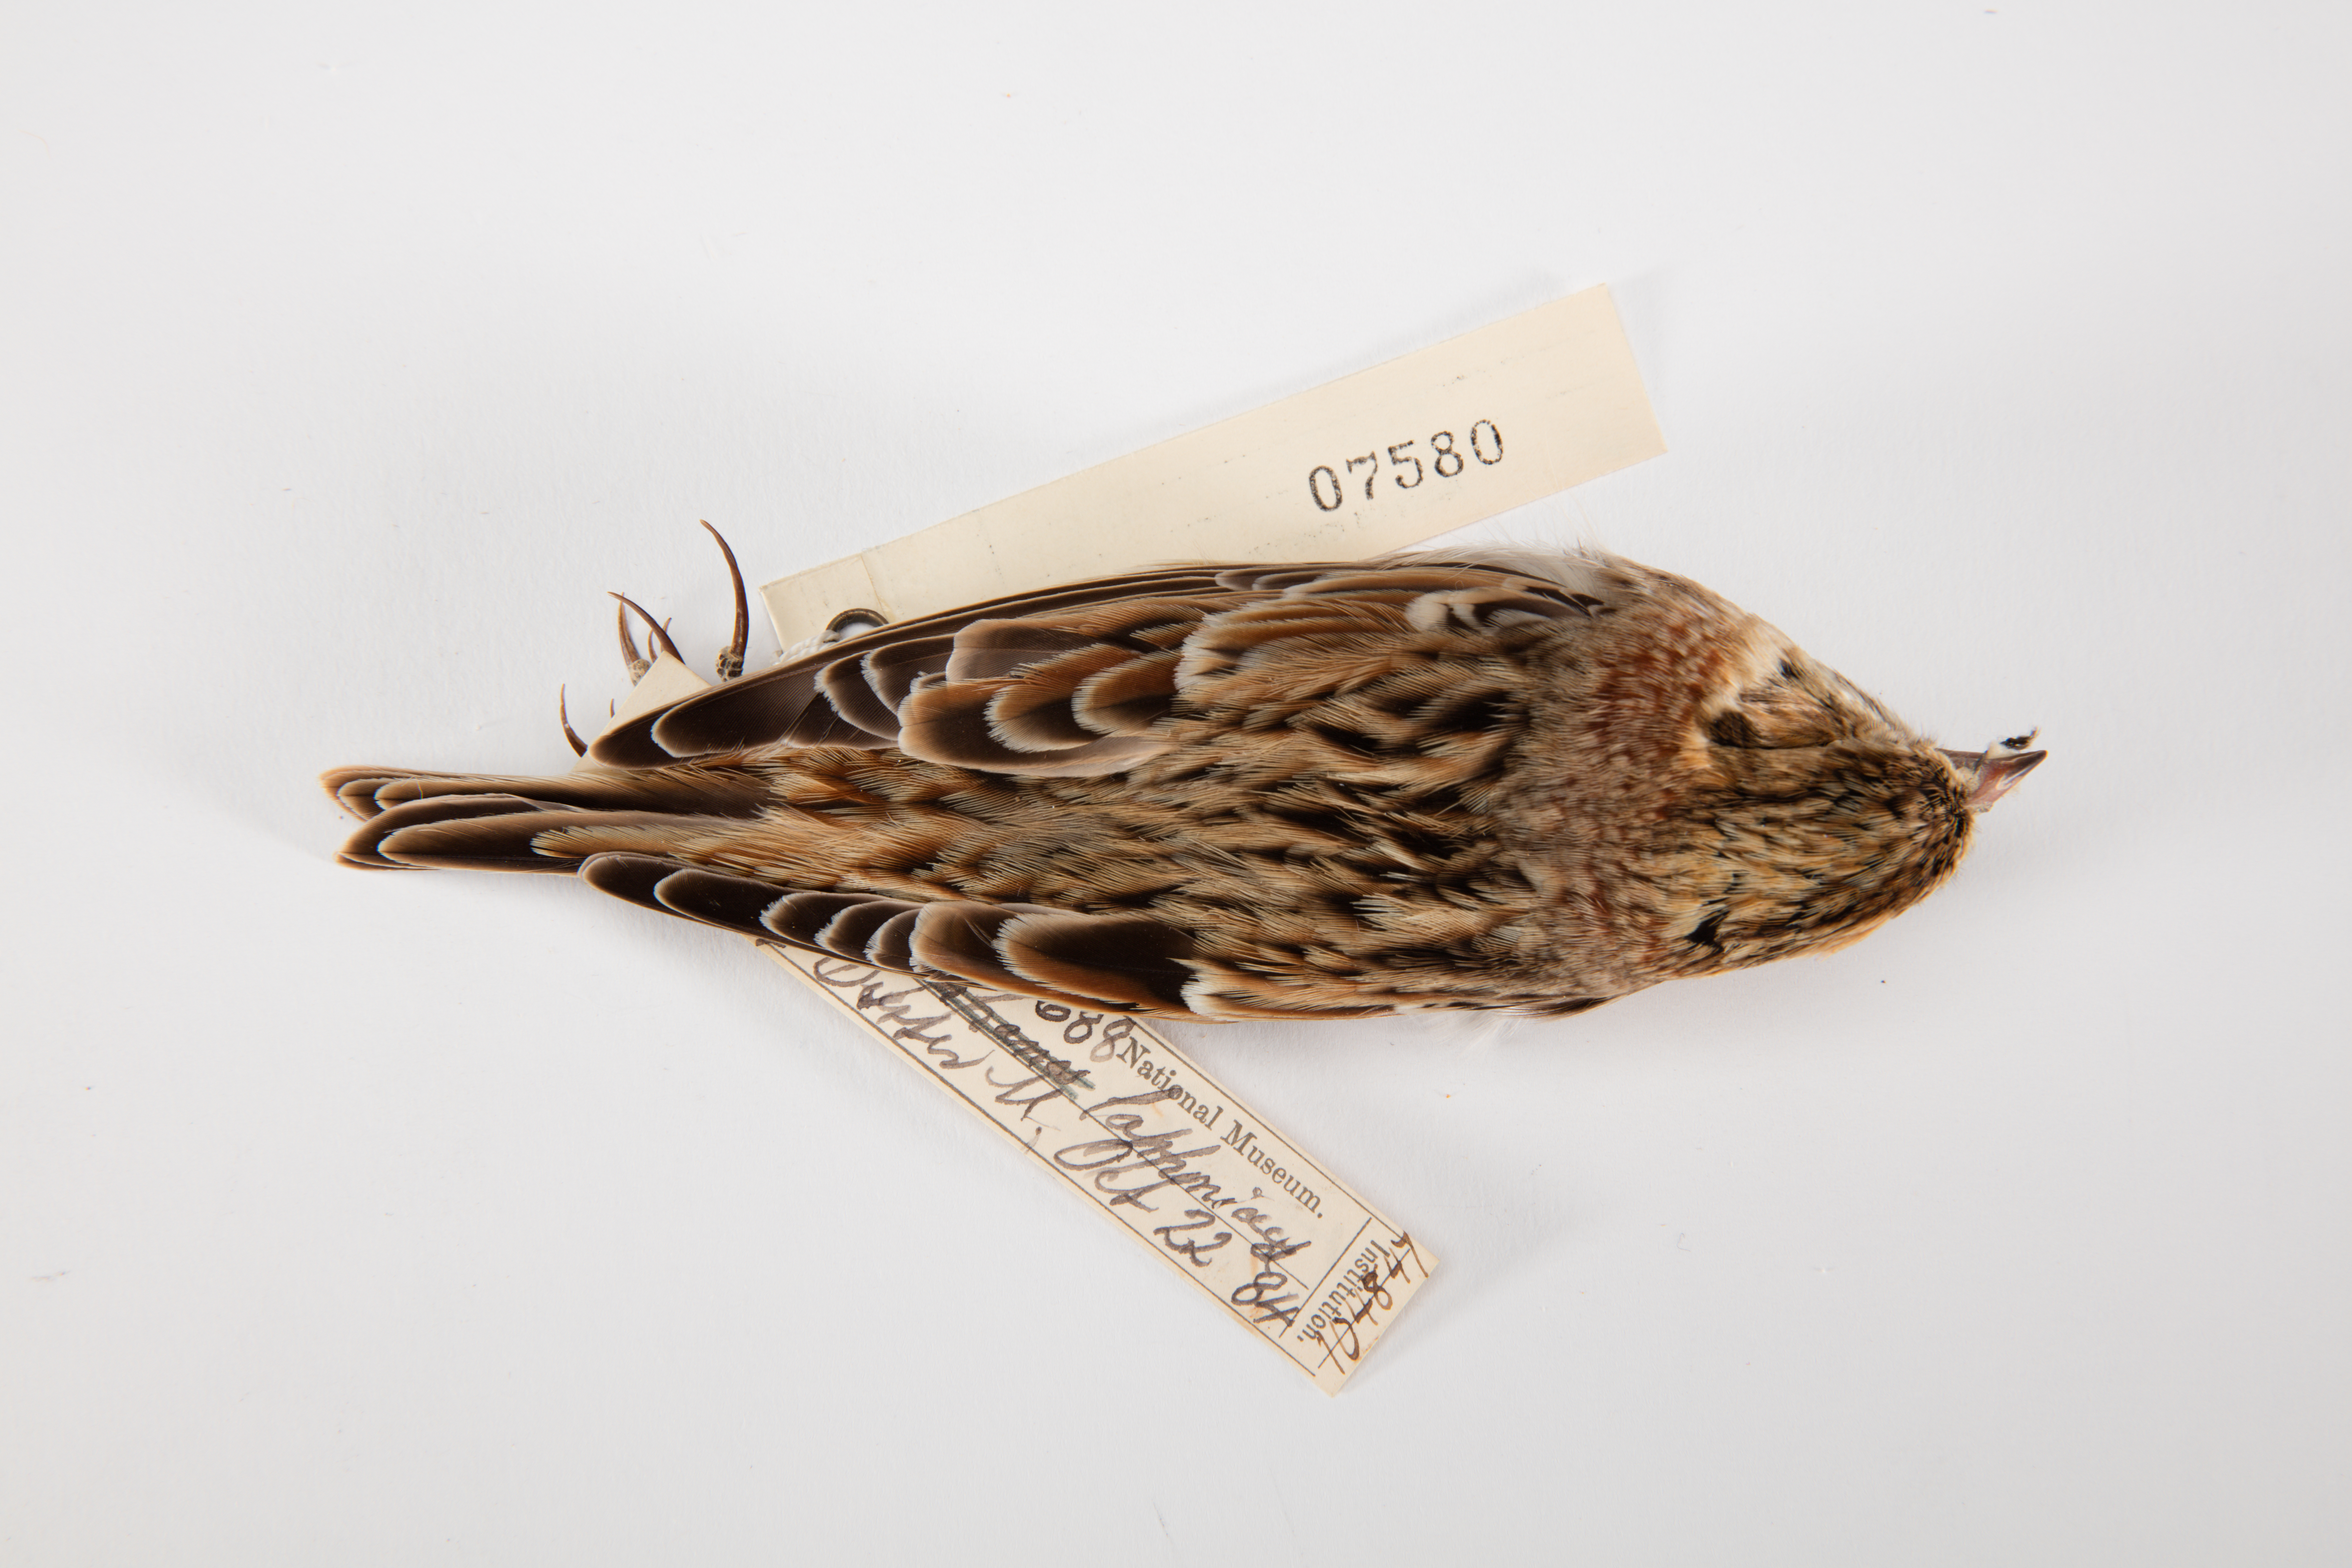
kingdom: Animalia
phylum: Chordata
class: Aves
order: Passeriformes
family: Calcariidae
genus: Calcarius
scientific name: Calcarius lapponicus
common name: Lapland longspur
